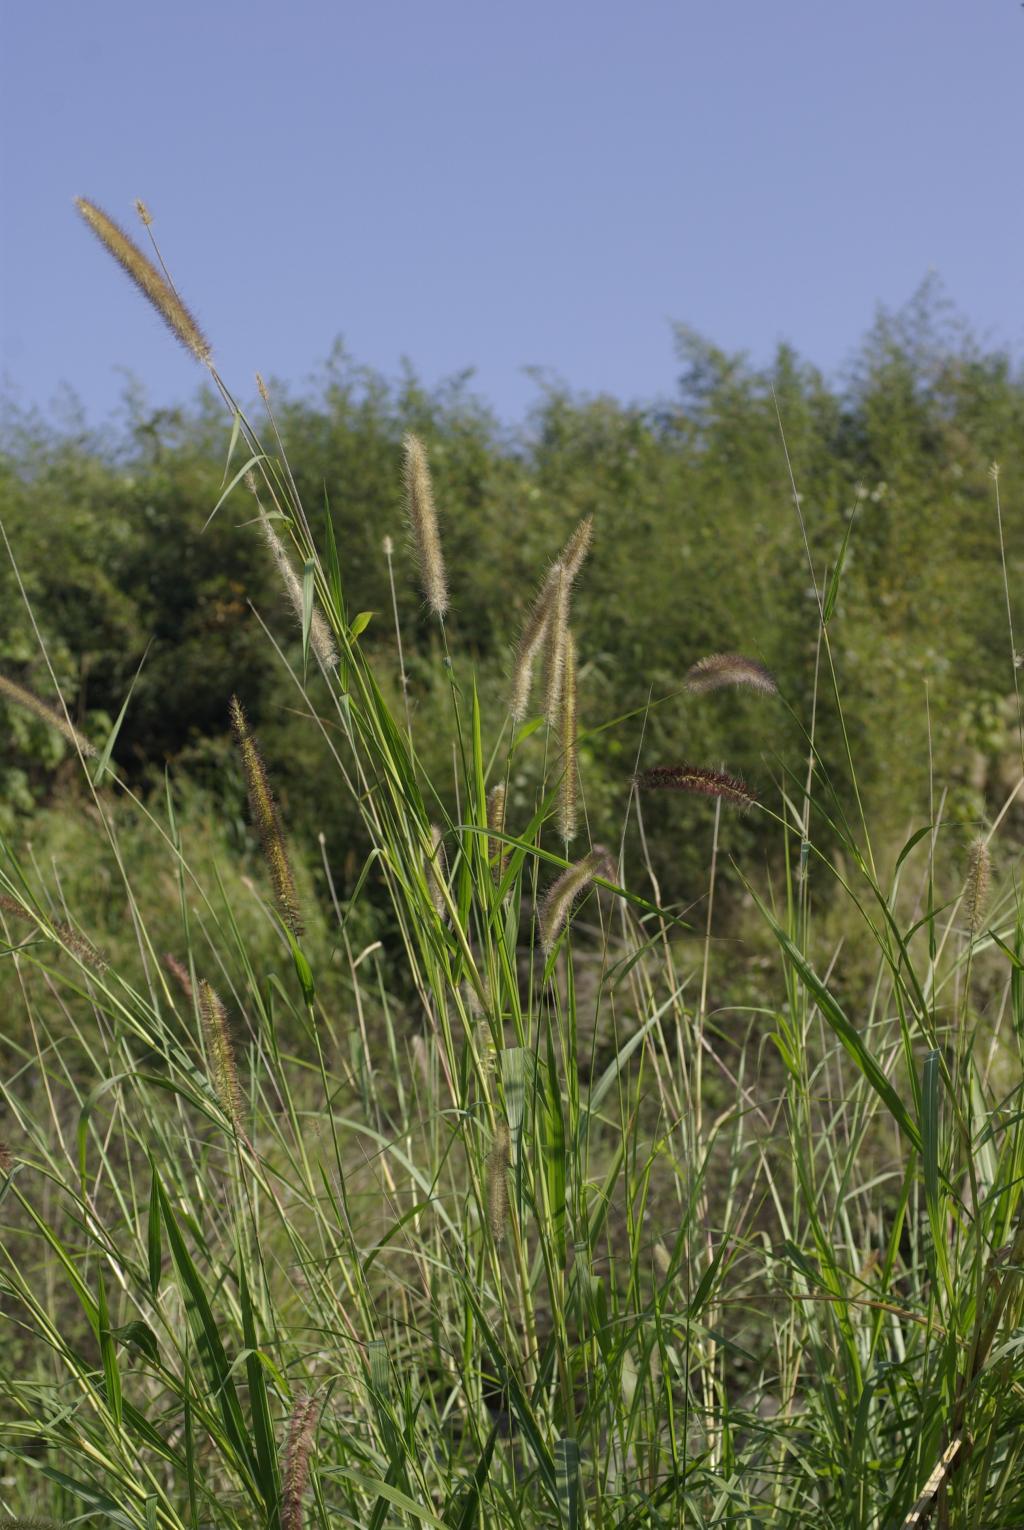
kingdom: Plantae
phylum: Tracheophyta
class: Liliopsida
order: Poales
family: Poaceae
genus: Cenchrus
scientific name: Cenchrus purpureus
